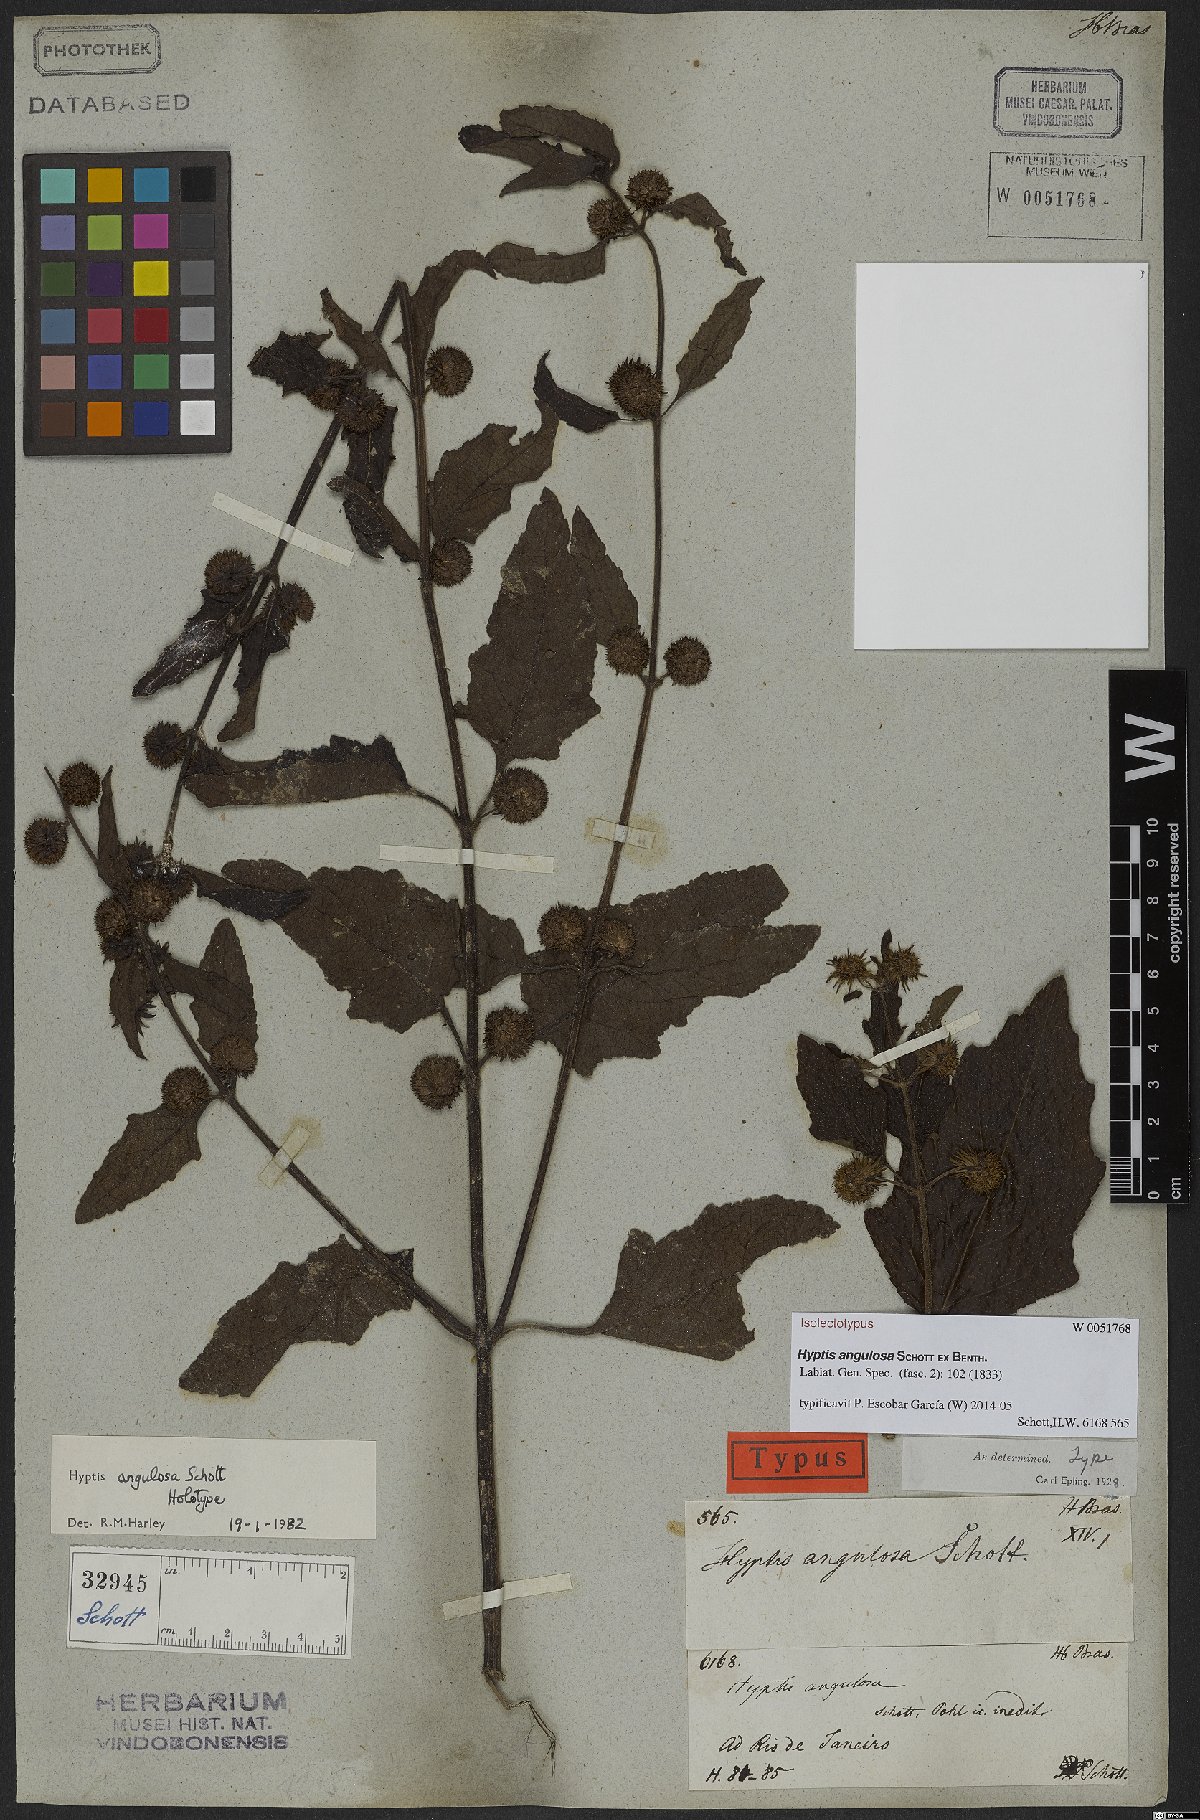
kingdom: Plantae
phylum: Tracheophyta
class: Magnoliopsida
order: Lamiales
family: Lamiaceae
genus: Hyptis
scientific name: Hyptis angulosa
